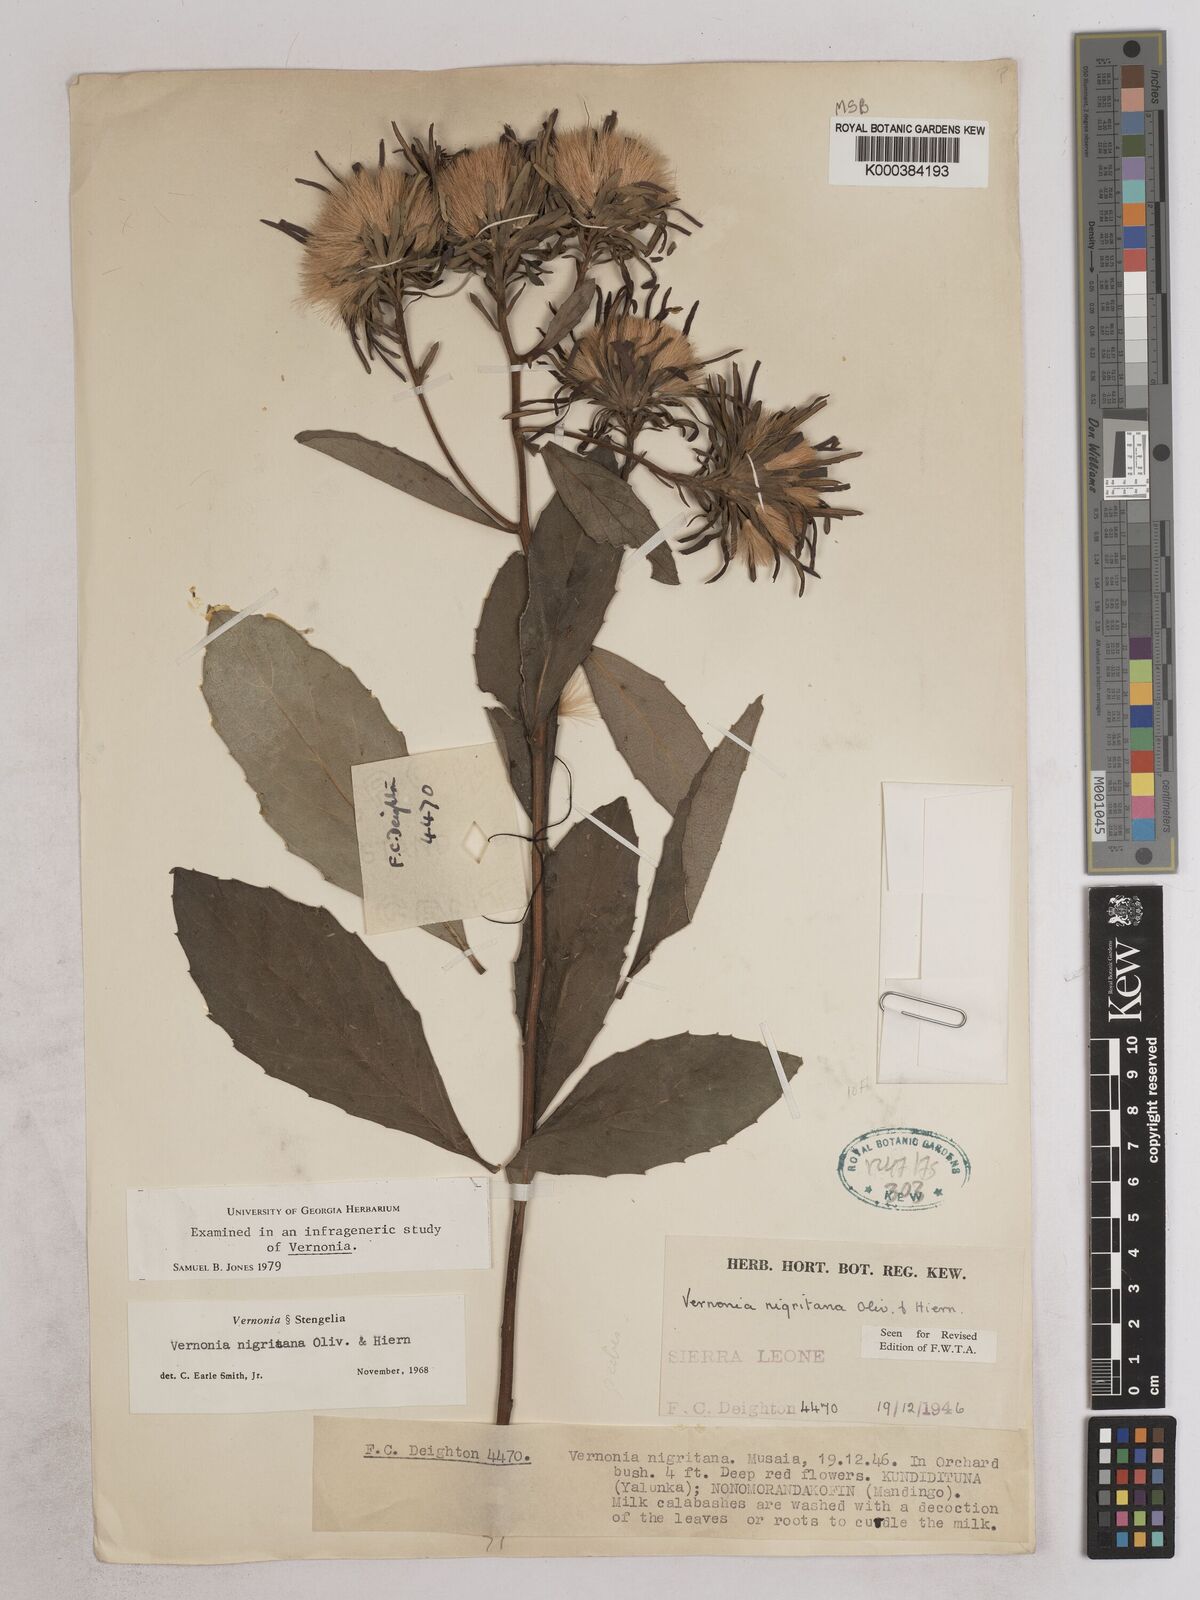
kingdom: Plantae
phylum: Tracheophyta
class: Magnoliopsida
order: Asterales
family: Asteraceae
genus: Linzia
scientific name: Linzia nigritiana
